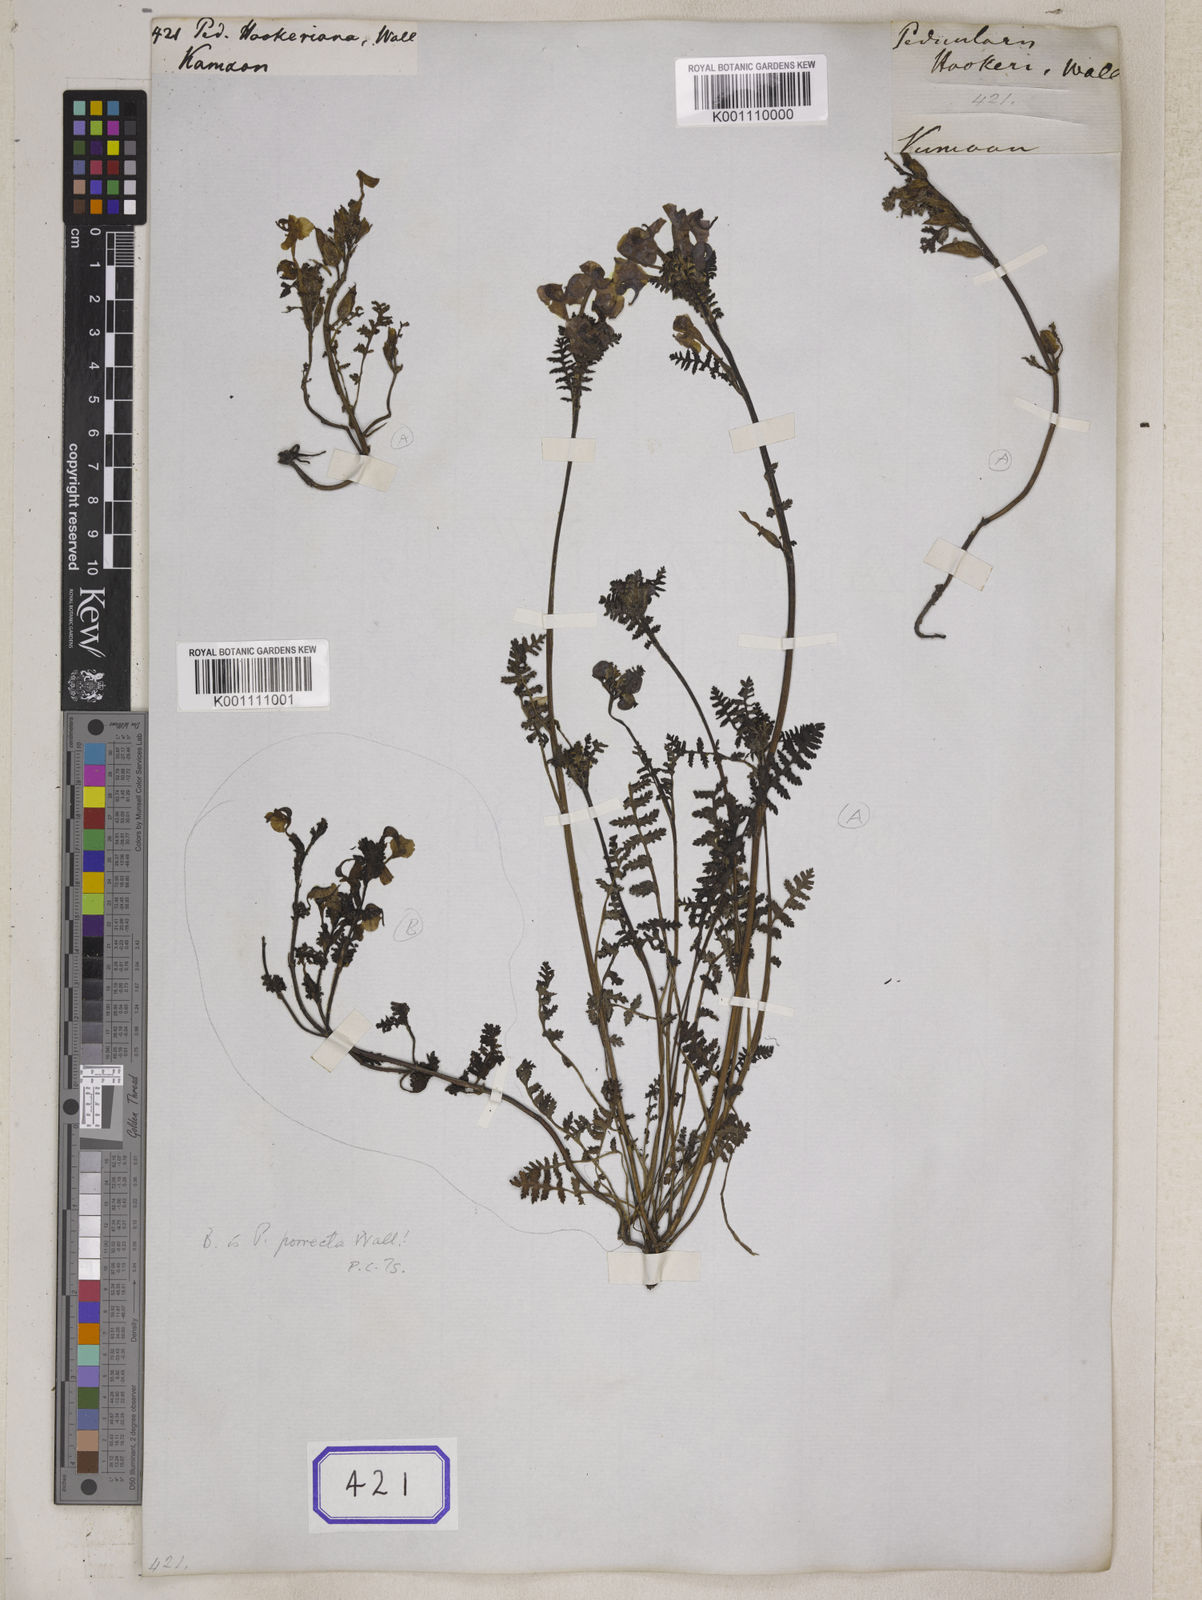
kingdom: Plantae
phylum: Tracheophyta
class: Magnoliopsida
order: Lamiales
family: Orobanchaceae
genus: Pedicularis
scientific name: Pedicularis
